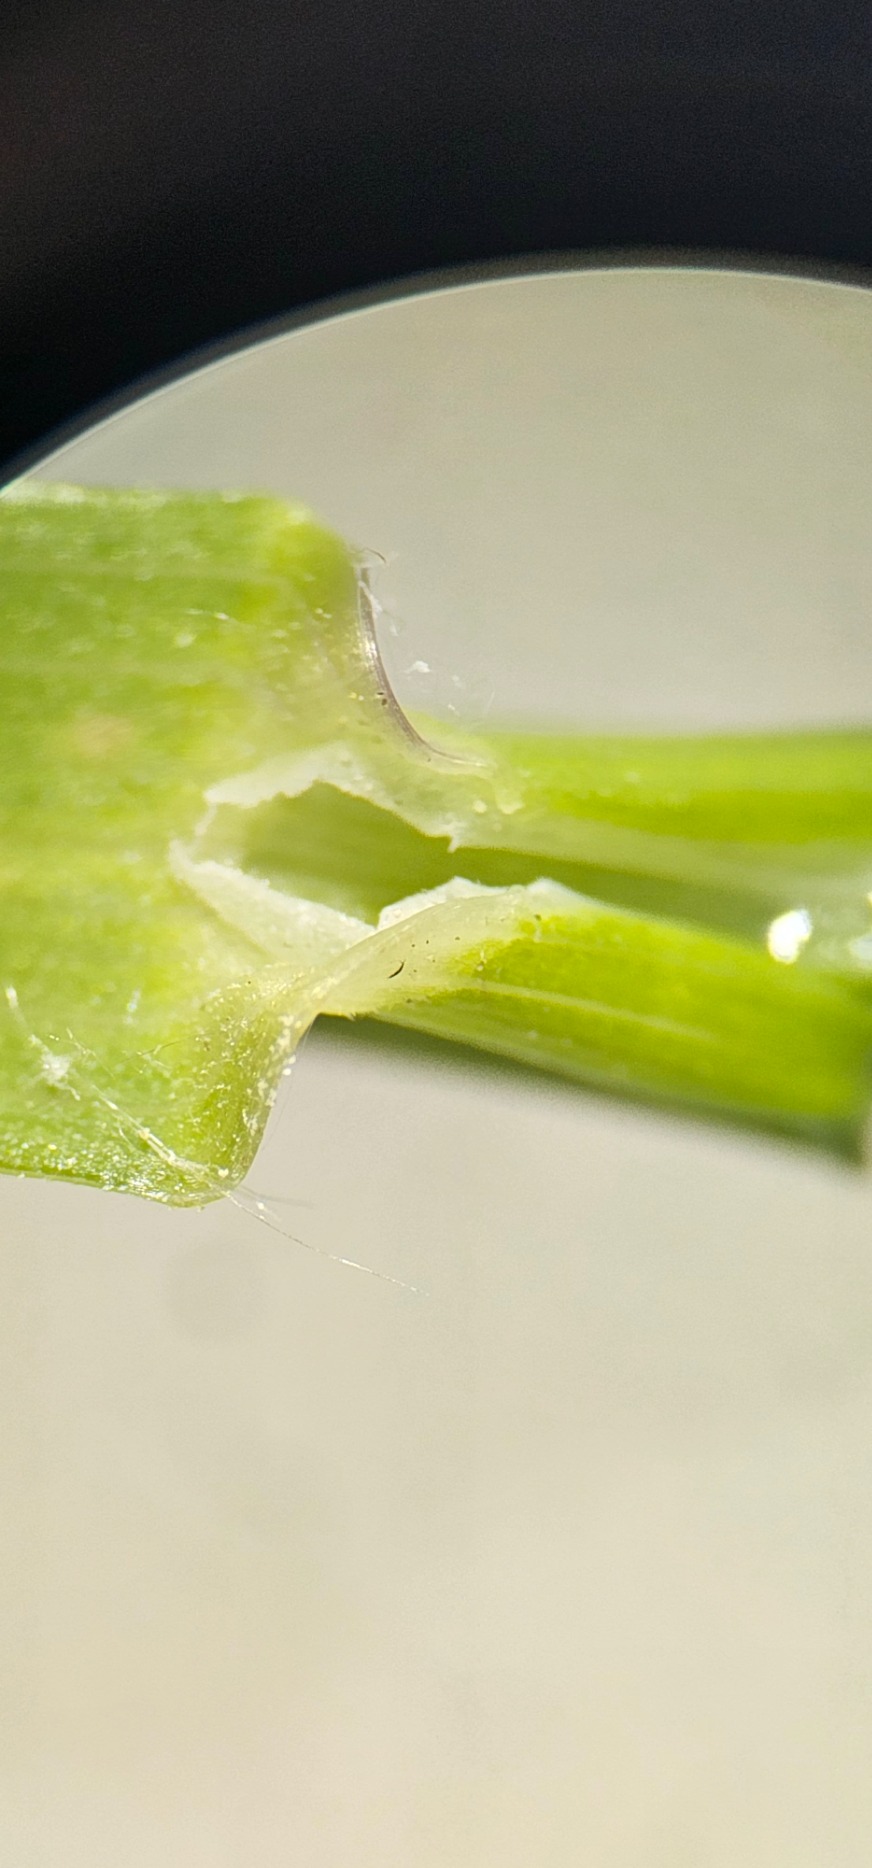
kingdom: Plantae
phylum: Tracheophyta
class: Liliopsida
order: Poales
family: Poaceae
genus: Poa
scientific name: Poa nemoralis
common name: Lund-rapgræs
